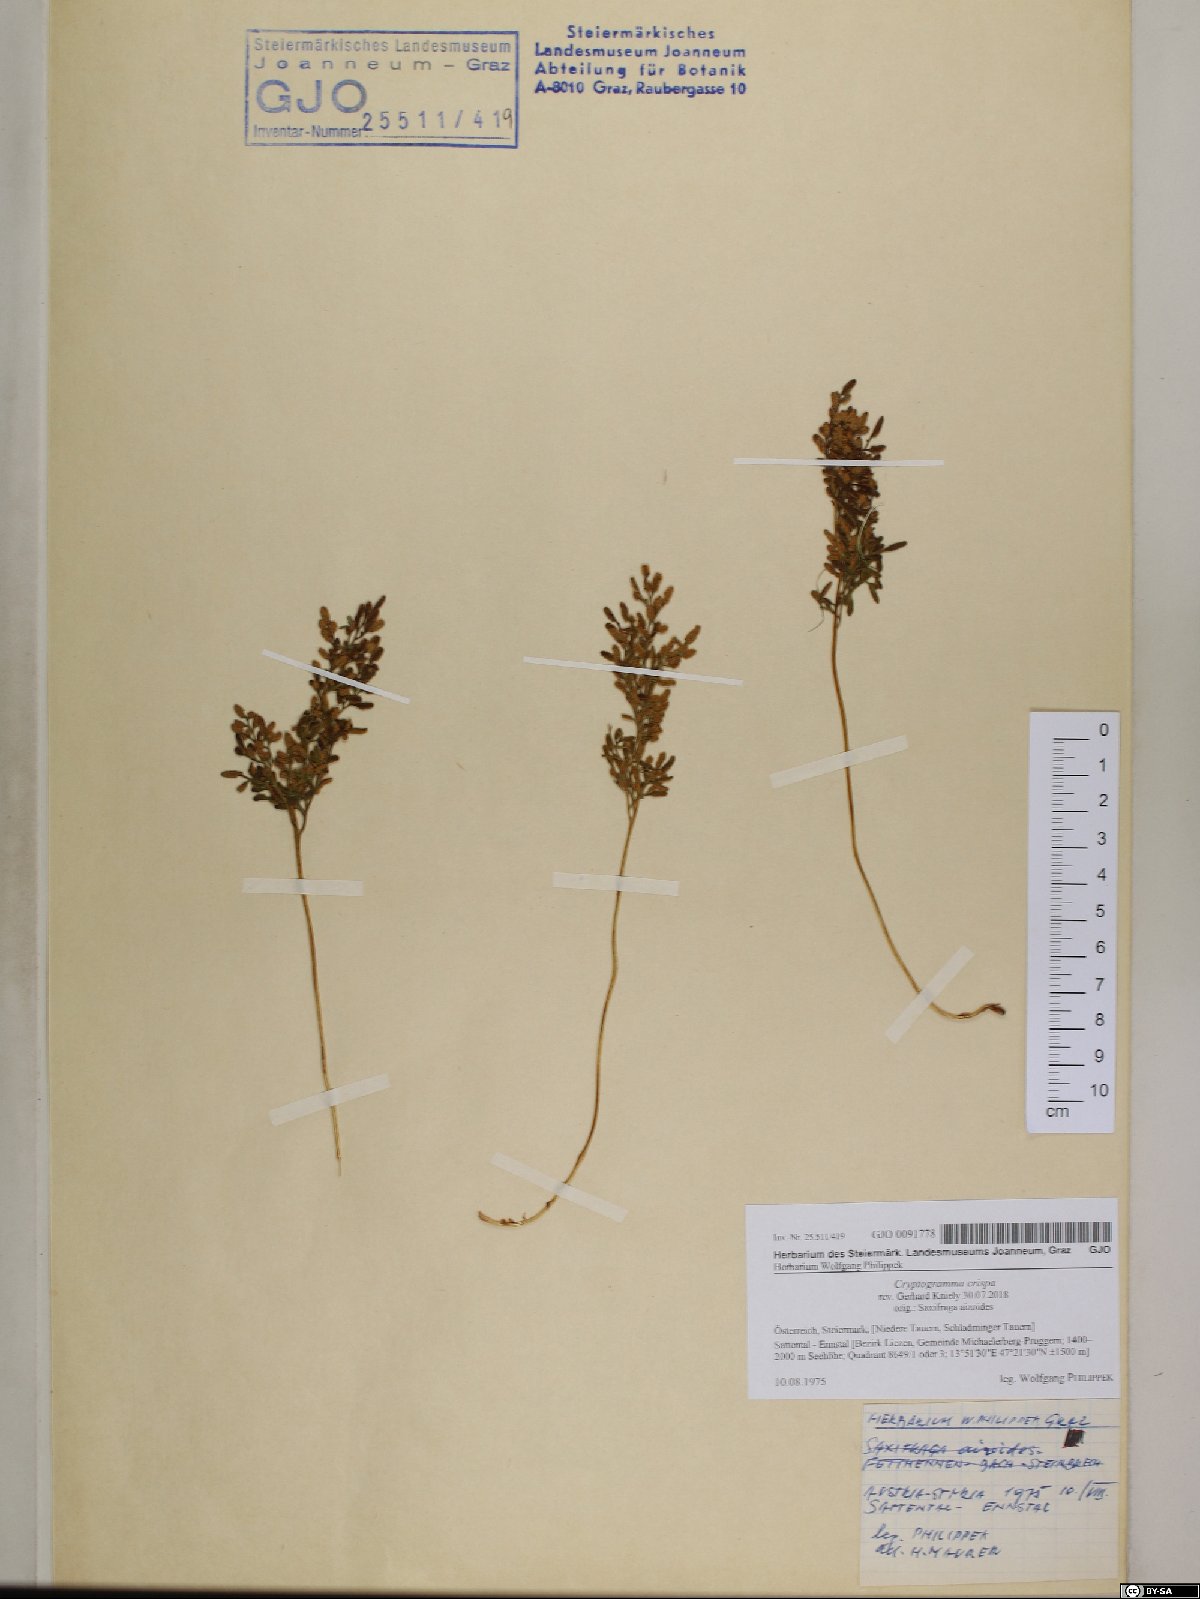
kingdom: Plantae
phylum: Tracheophyta
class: Polypodiopsida
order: Polypodiales
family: Pteridaceae
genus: Cryptogramma
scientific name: Cryptogramma crispa
